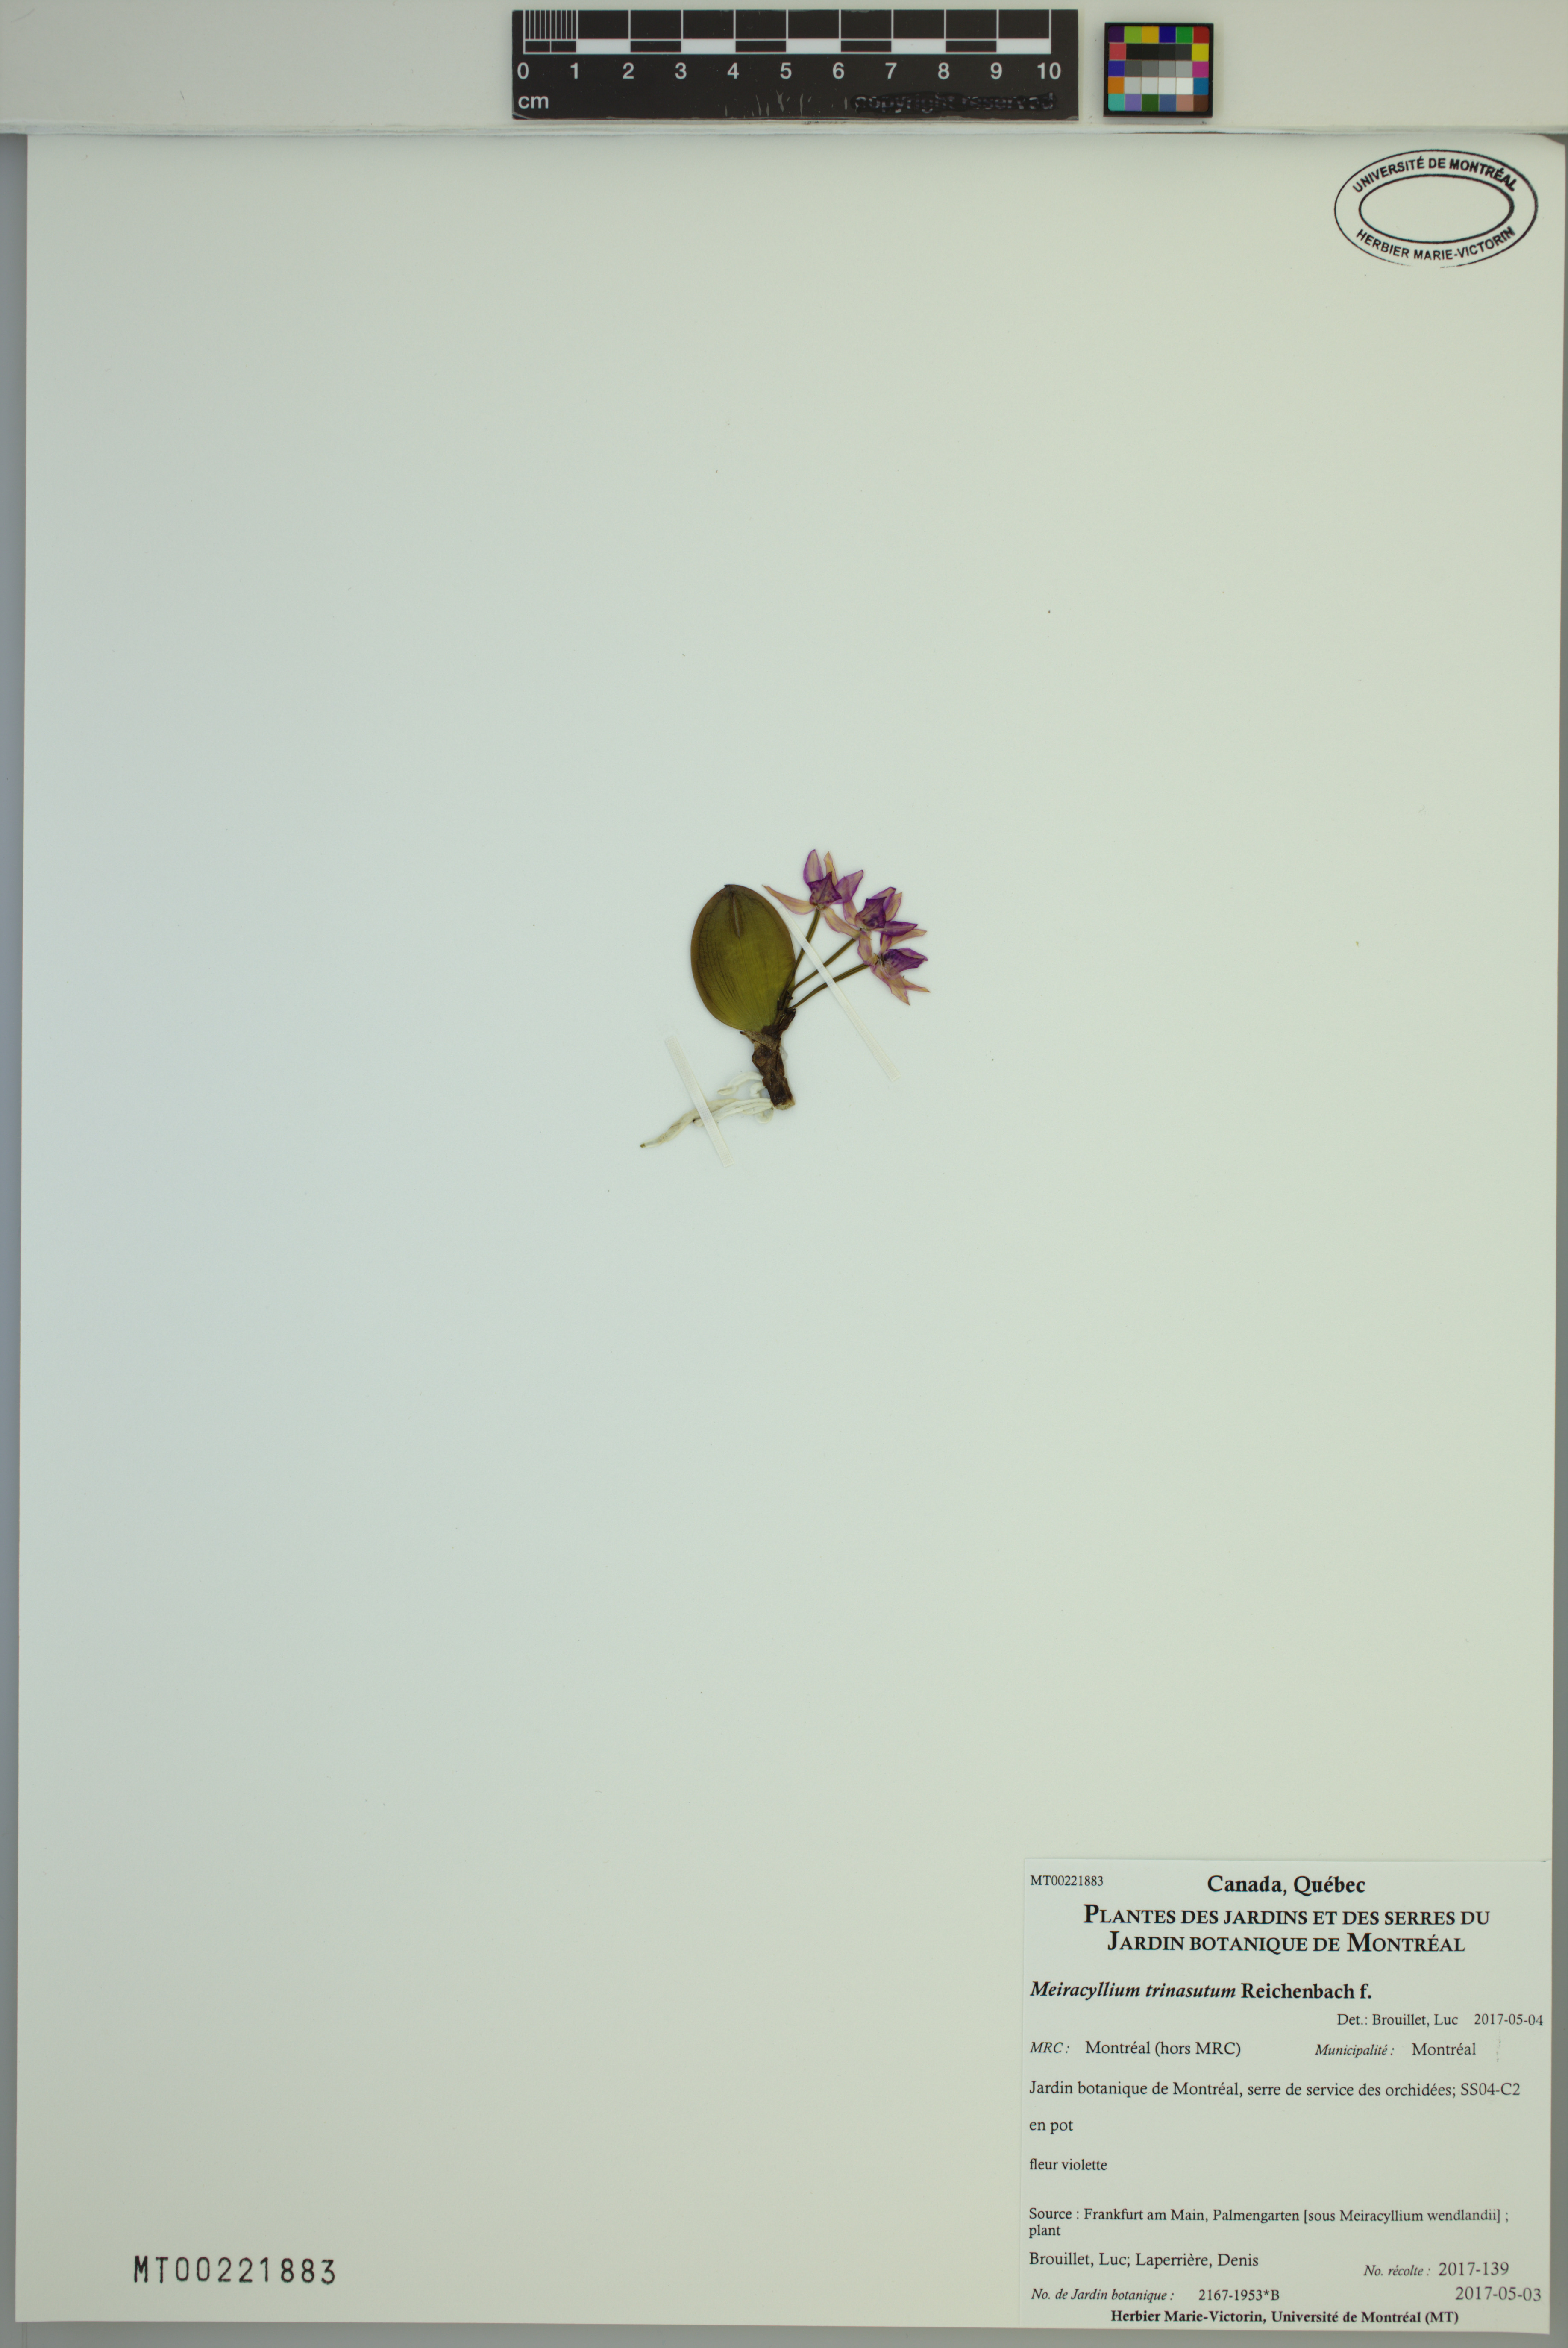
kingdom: Plantae
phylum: Tracheophyta
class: Liliopsida
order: Asparagales
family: Orchidaceae
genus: Meiracyllium
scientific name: Meiracyllium trinasutum
